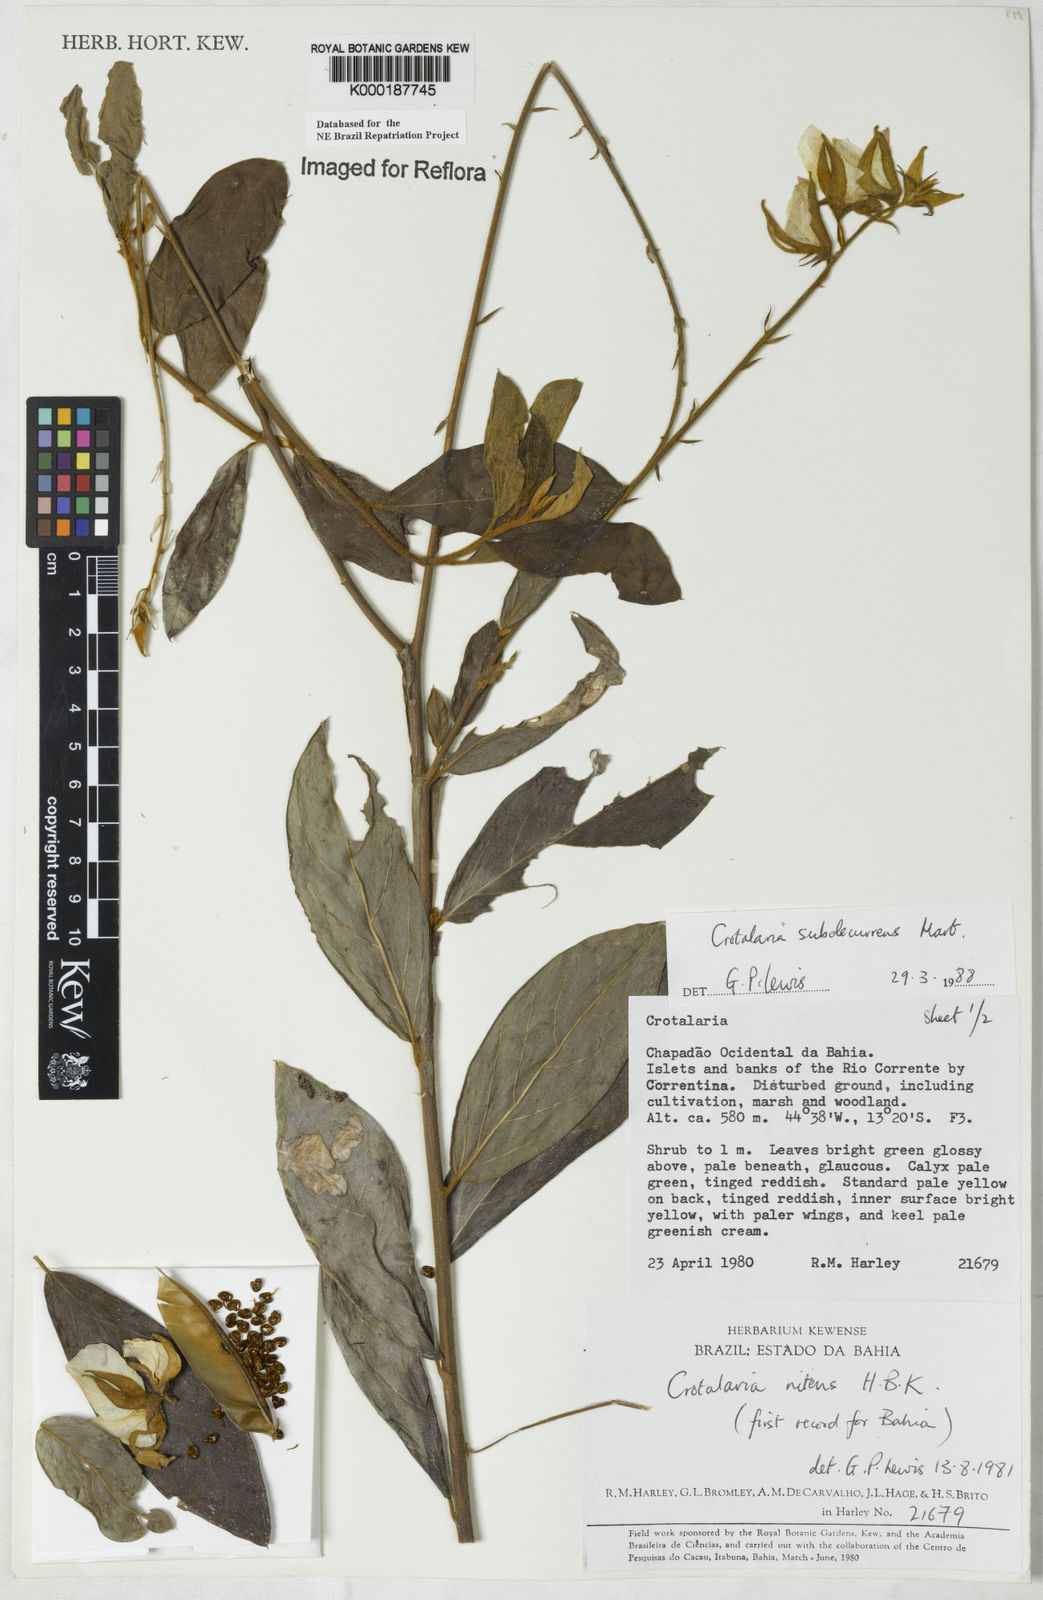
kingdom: Plantae
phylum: Tracheophyta
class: Magnoliopsida
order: Fabales
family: Fabaceae
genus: Crotalaria
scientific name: Crotalaria subdecurrens
